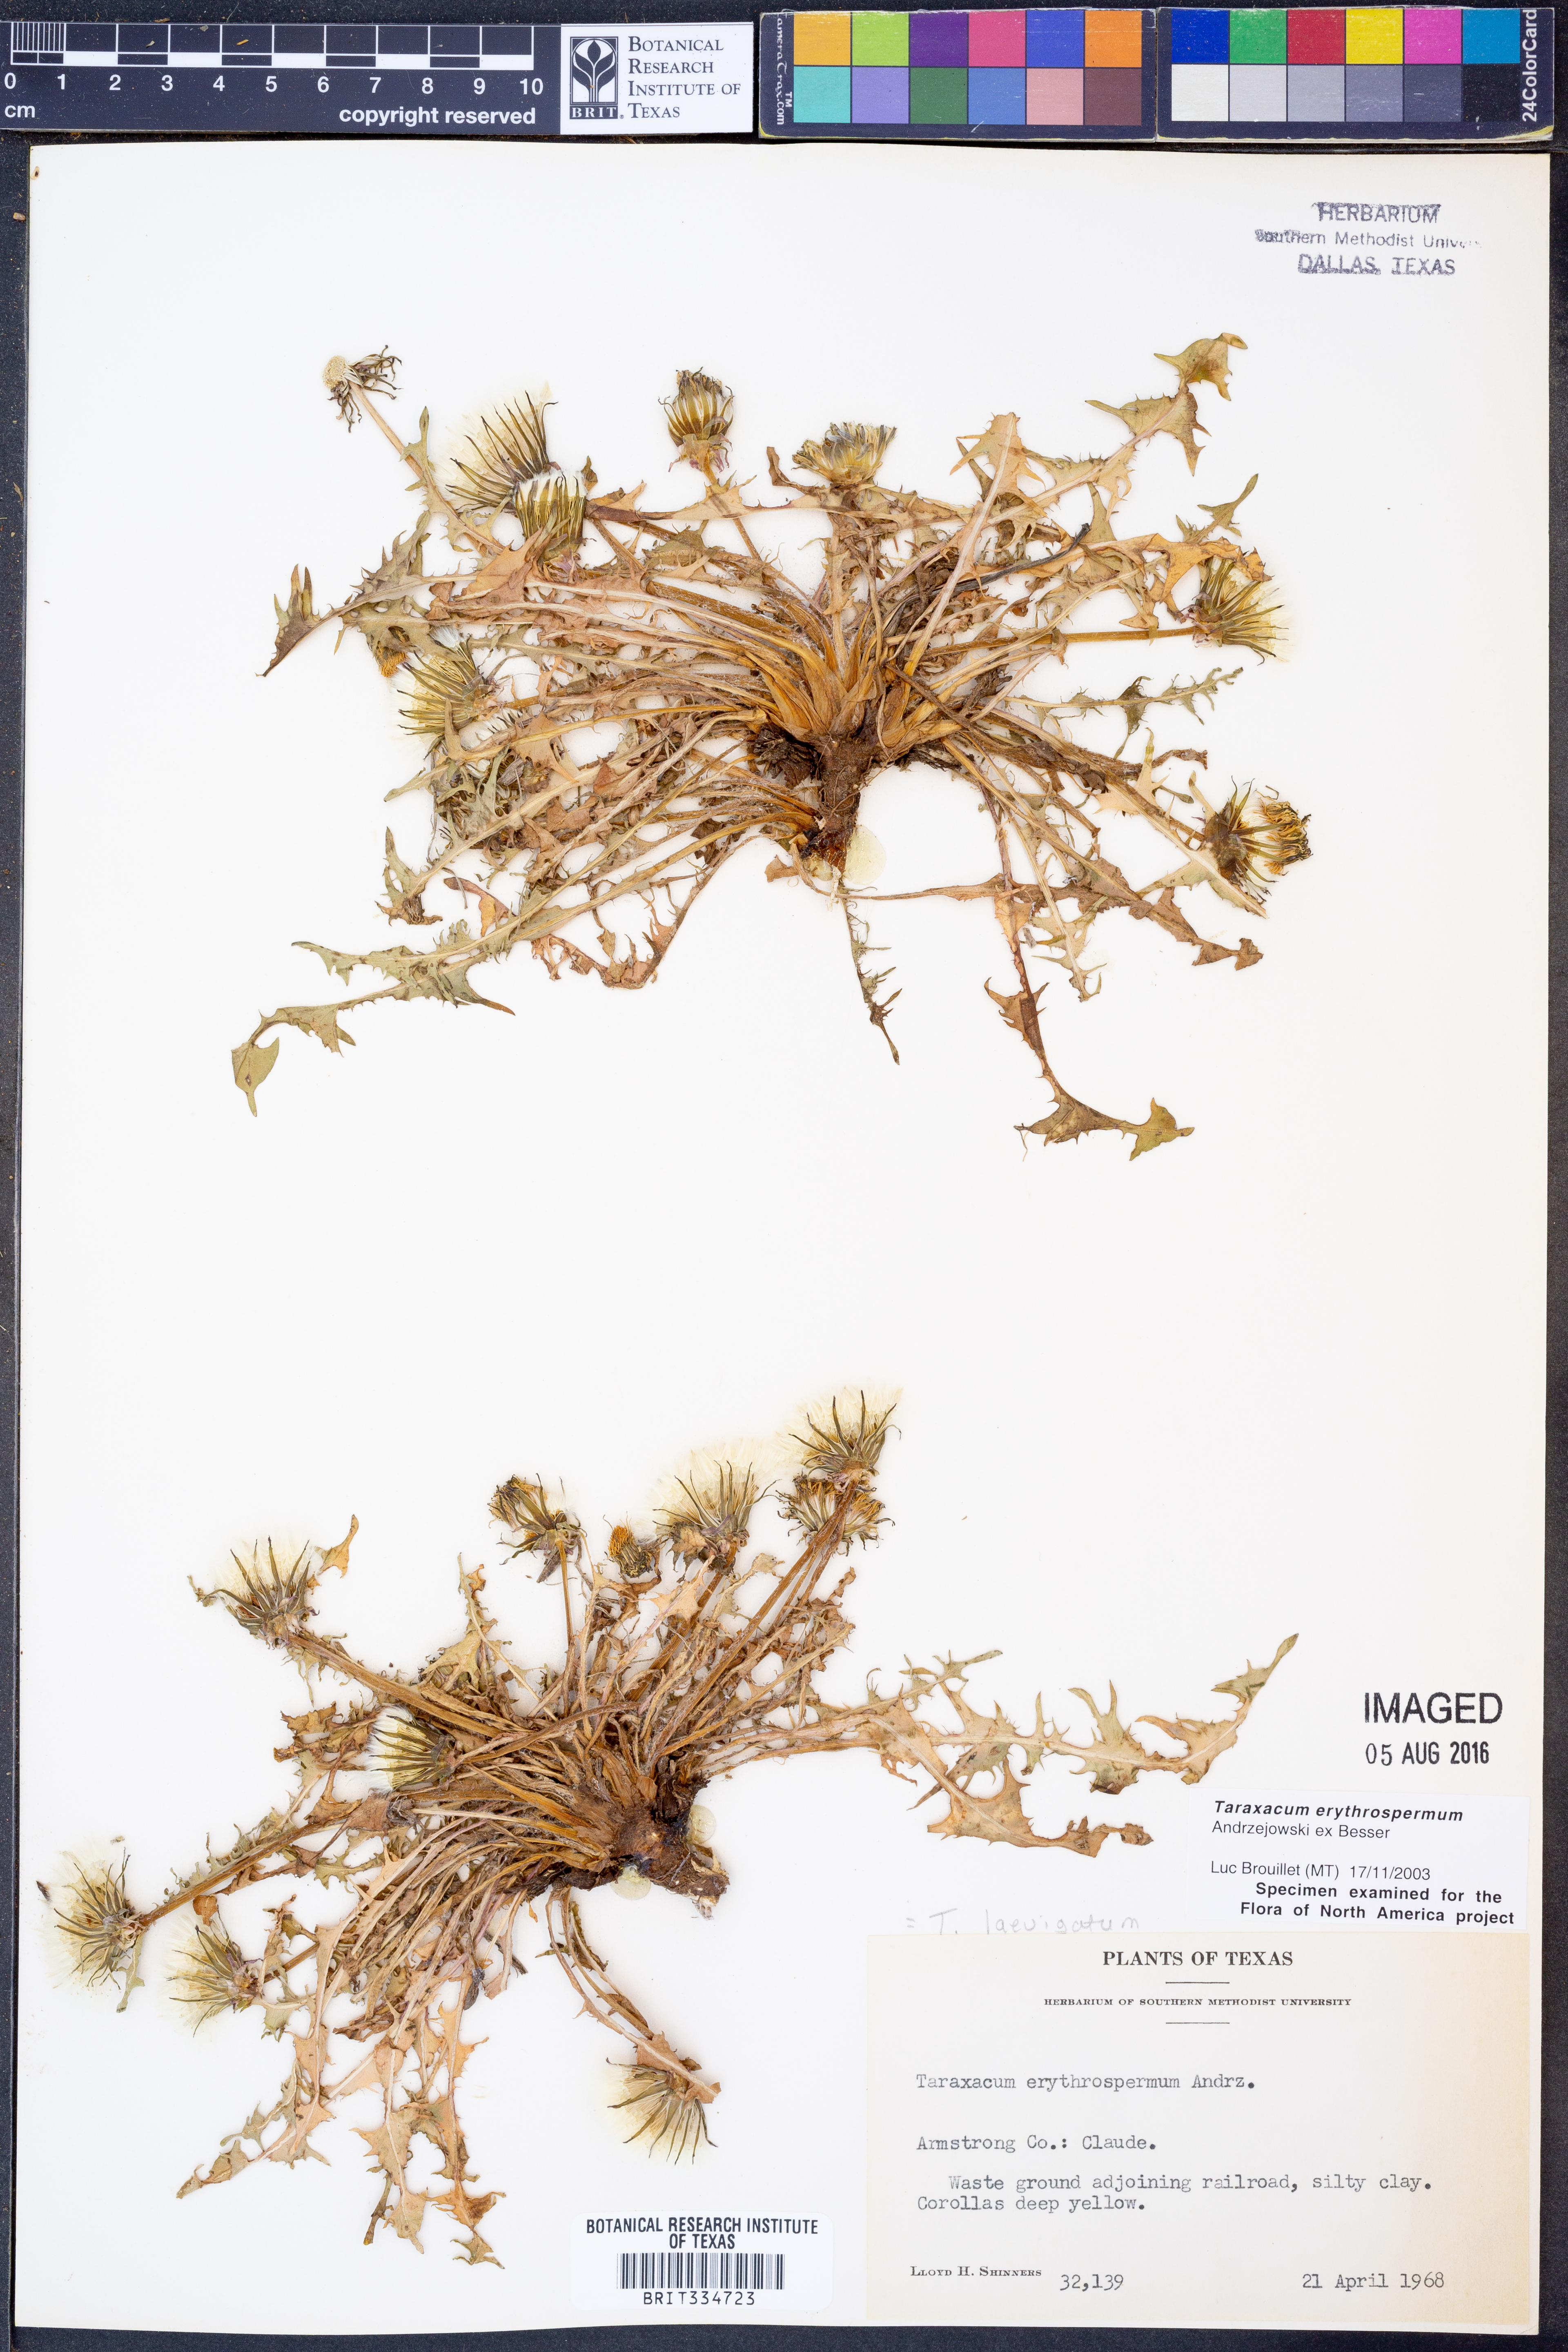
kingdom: Plantae
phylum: Tracheophyta
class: Magnoliopsida
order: Asterales
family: Asteraceae
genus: Taraxacum
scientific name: Taraxacum erythrospermum
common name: Rock dandelion
